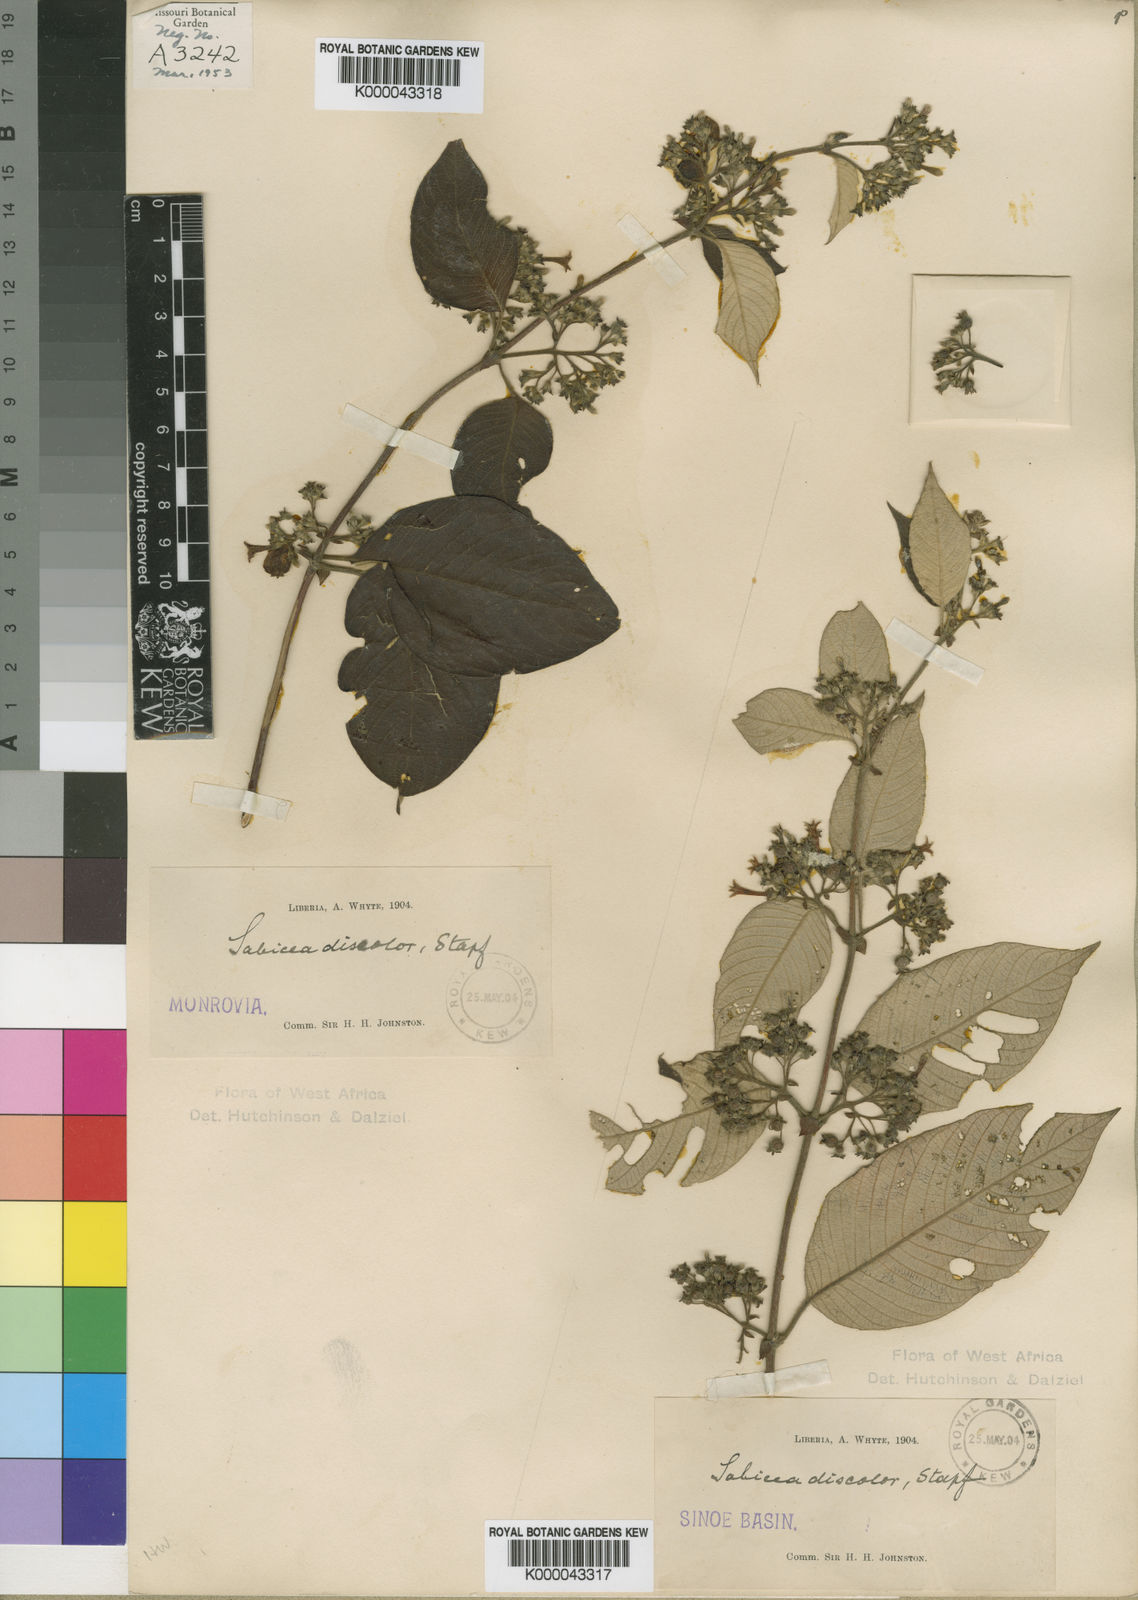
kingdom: Plantae
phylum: Tracheophyta
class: Magnoliopsida
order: Gentianales
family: Rubiaceae
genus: Sabicea
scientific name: Sabicea discolor
